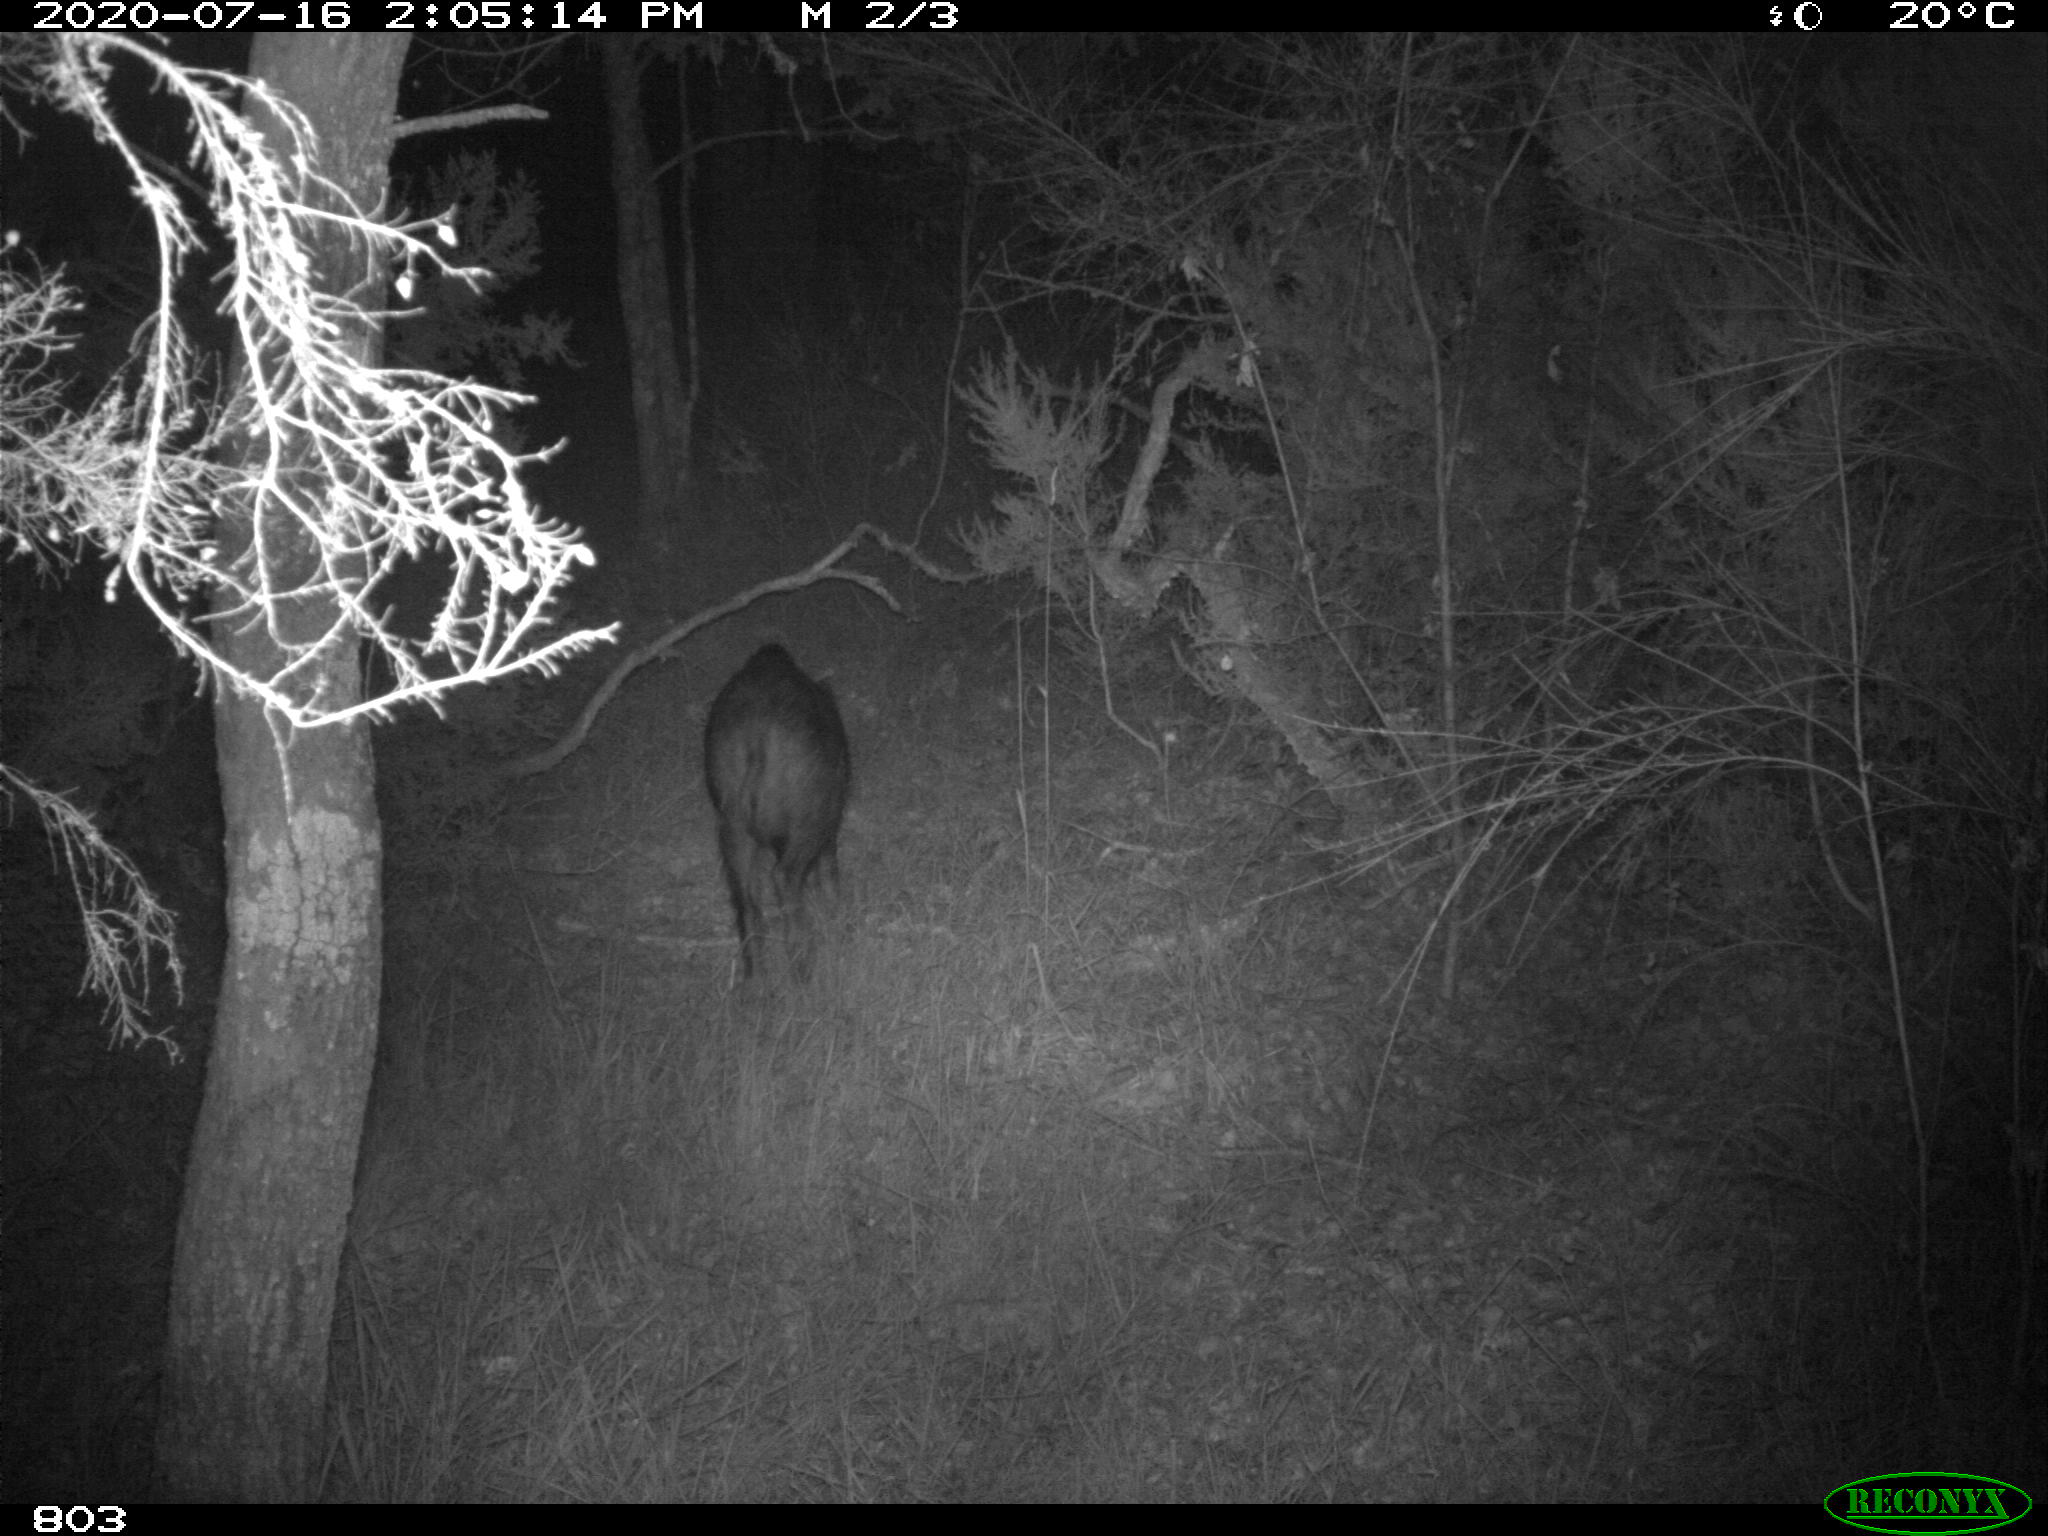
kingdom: Animalia
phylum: Chordata
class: Mammalia
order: Artiodactyla
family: Suidae
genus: Sus
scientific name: Sus scrofa
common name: Wild boar
